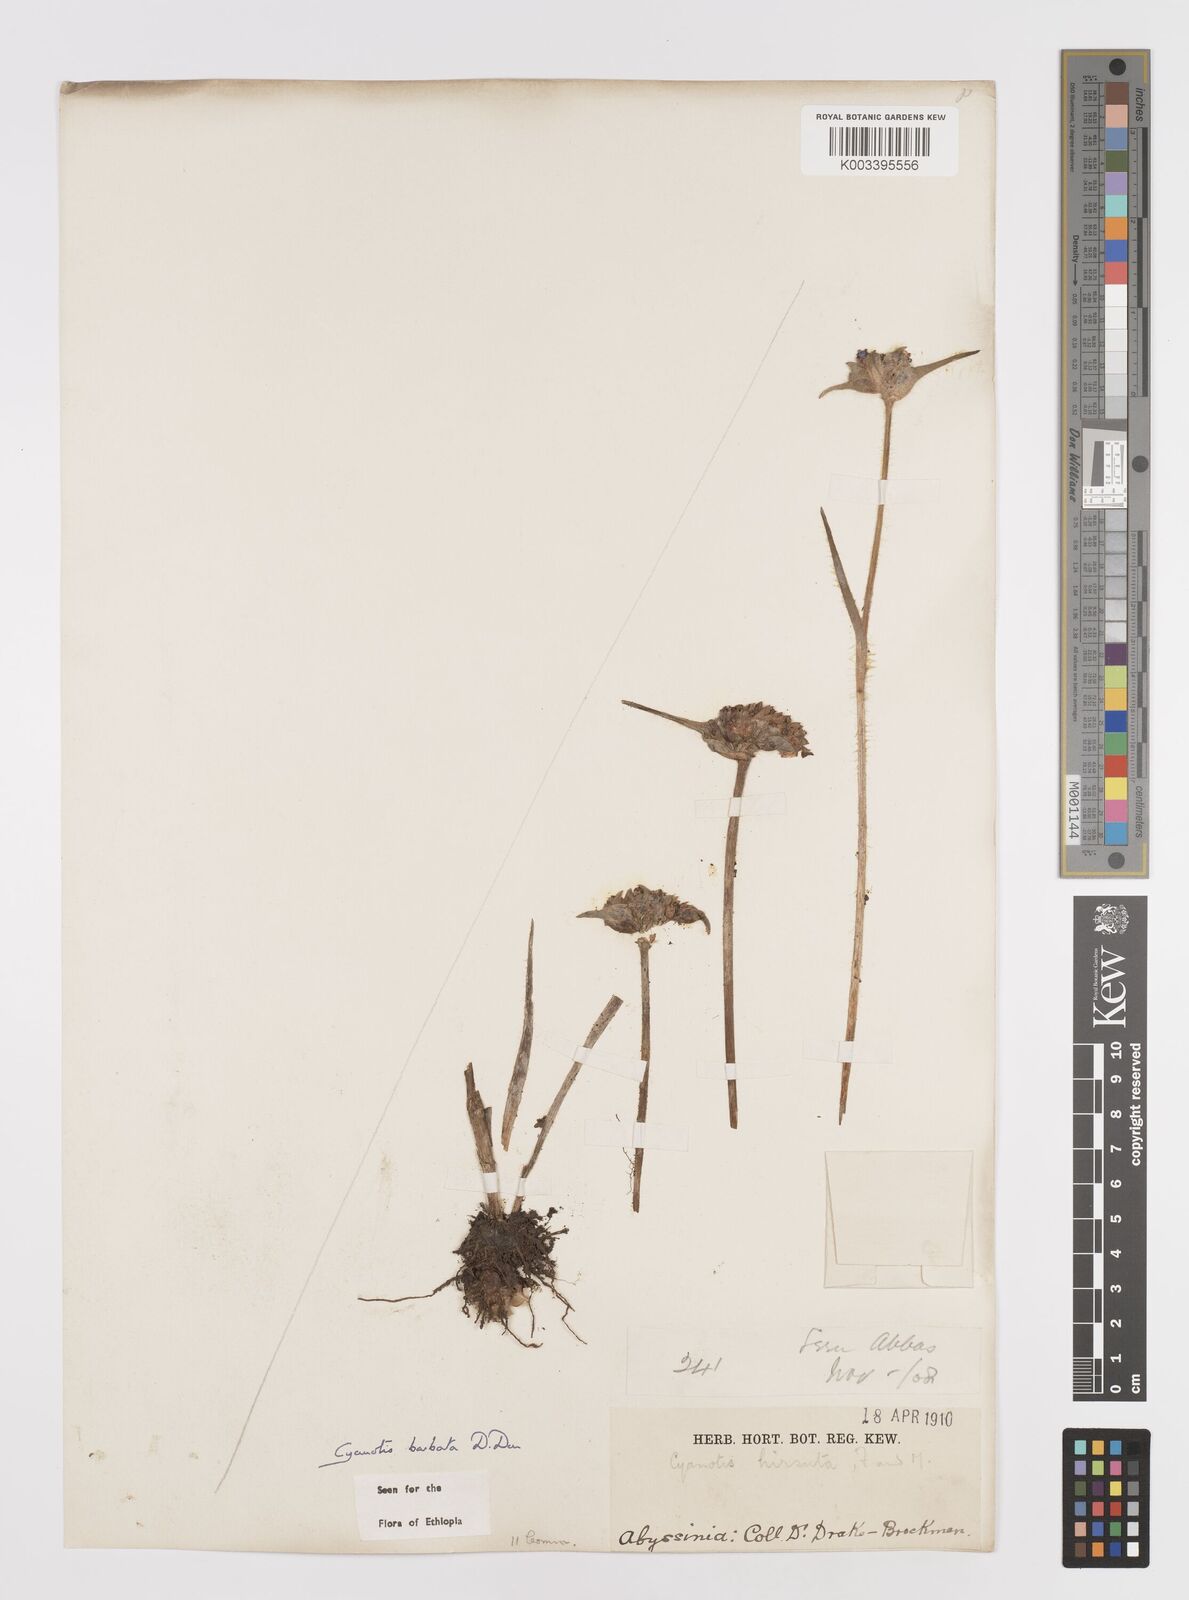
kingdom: Plantae
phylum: Tracheophyta
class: Liliopsida
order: Commelinales
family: Commelinaceae
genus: Cyanotis
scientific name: Cyanotis vaga
